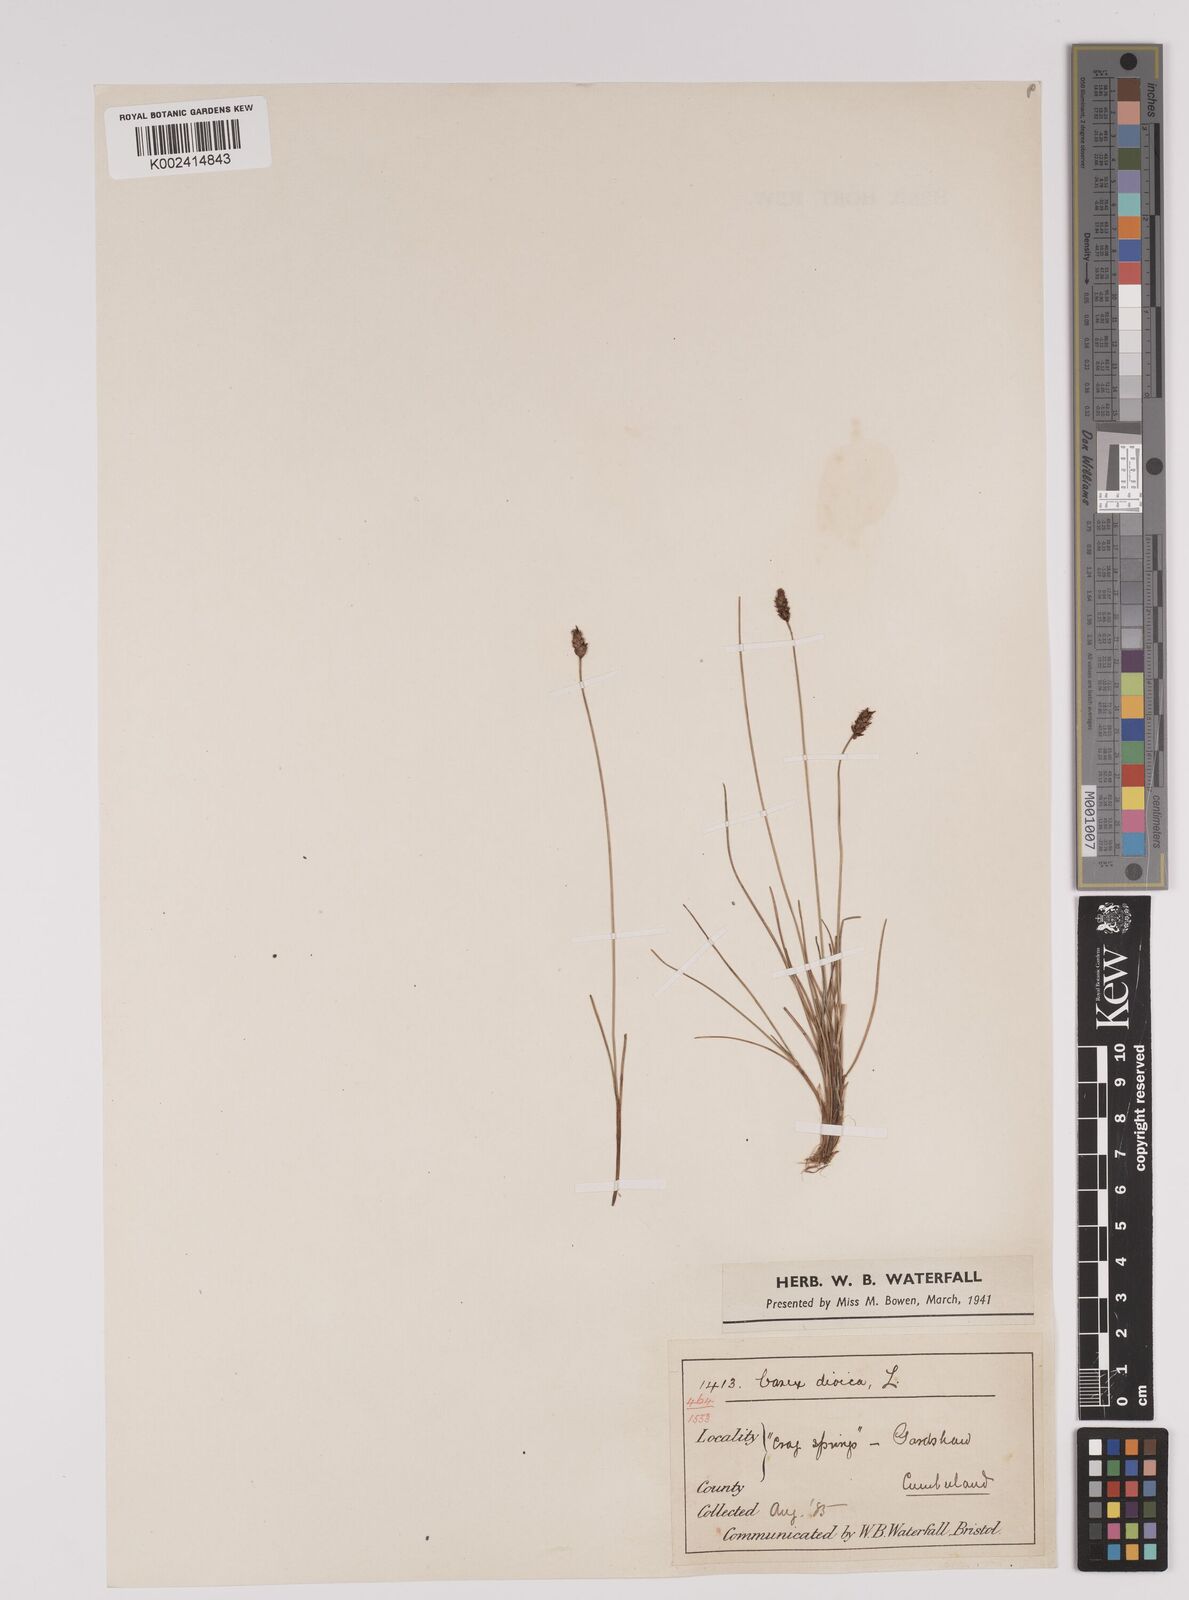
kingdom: Plantae
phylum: Tracheophyta
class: Liliopsida
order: Poales
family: Cyperaceae
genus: Carex
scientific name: Carex dioica
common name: Dioecious sedge
